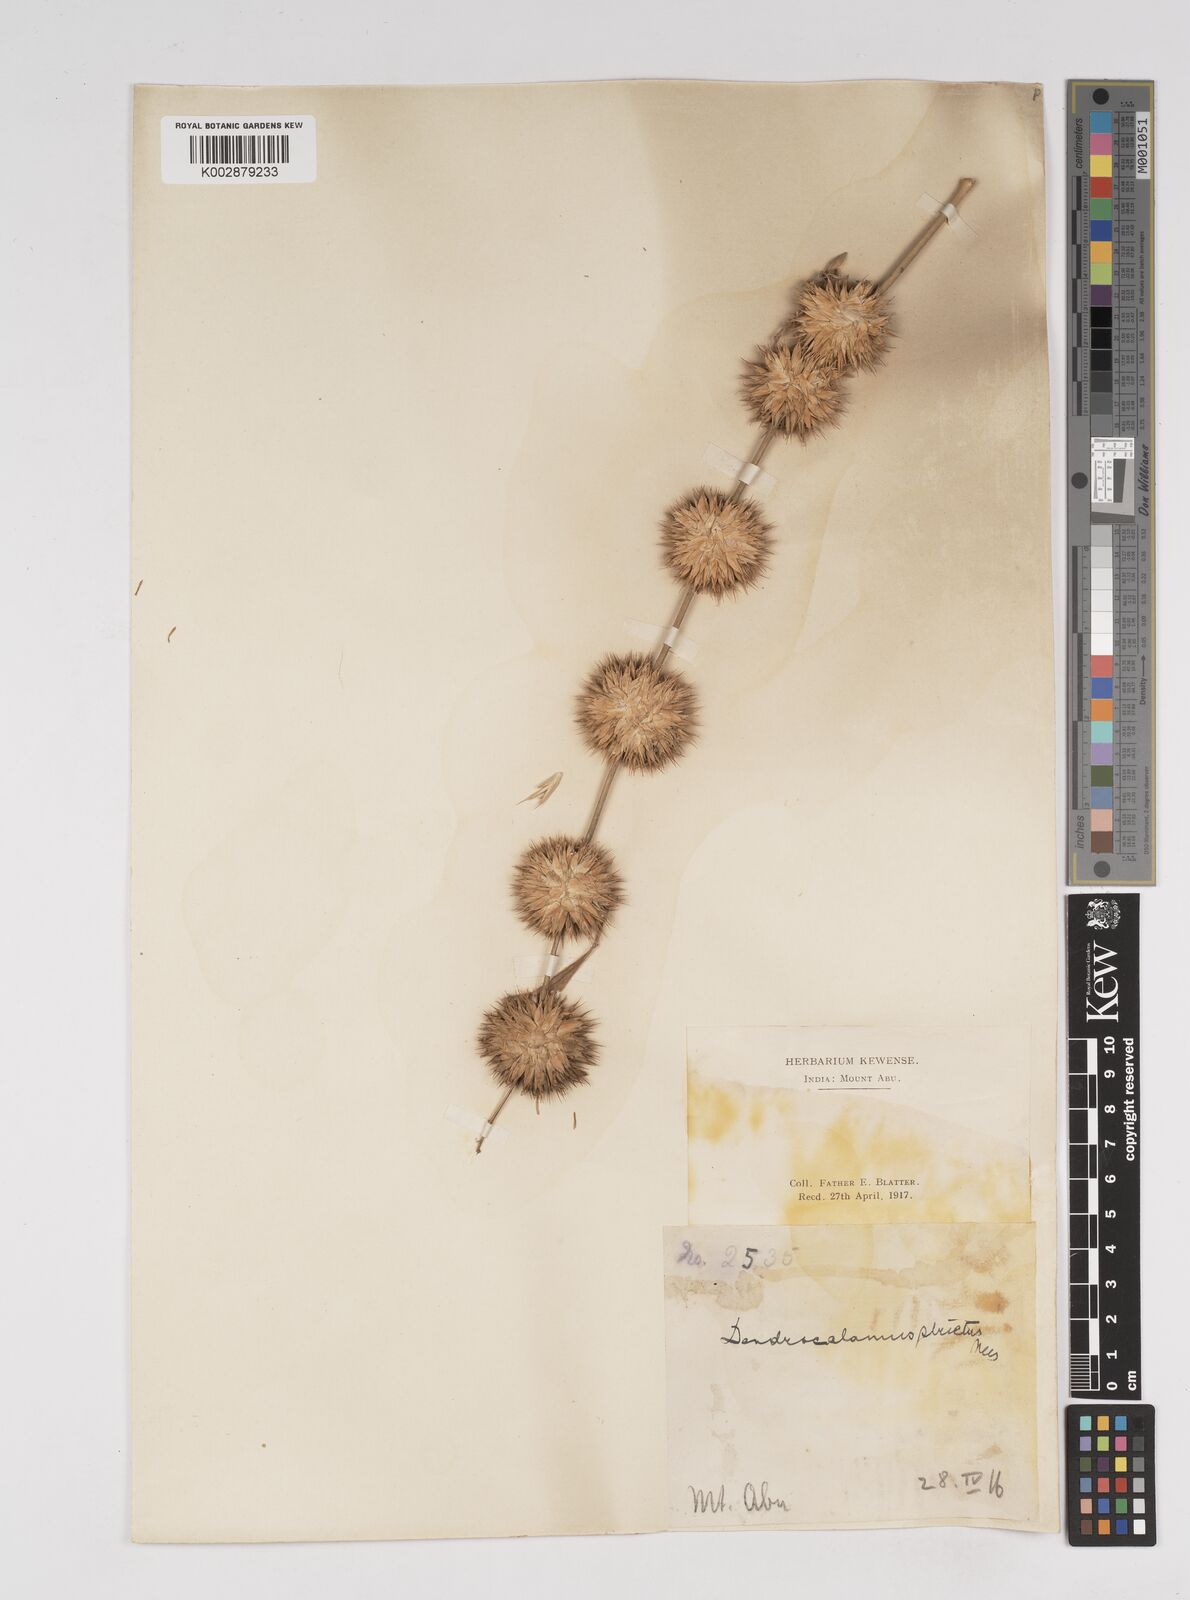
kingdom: Plantae
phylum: Tracheophyta
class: Liliopsida
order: Poales
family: Poaceae
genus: Dendrocalamus
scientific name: Dendrocalamus strictus
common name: Male bamboo
